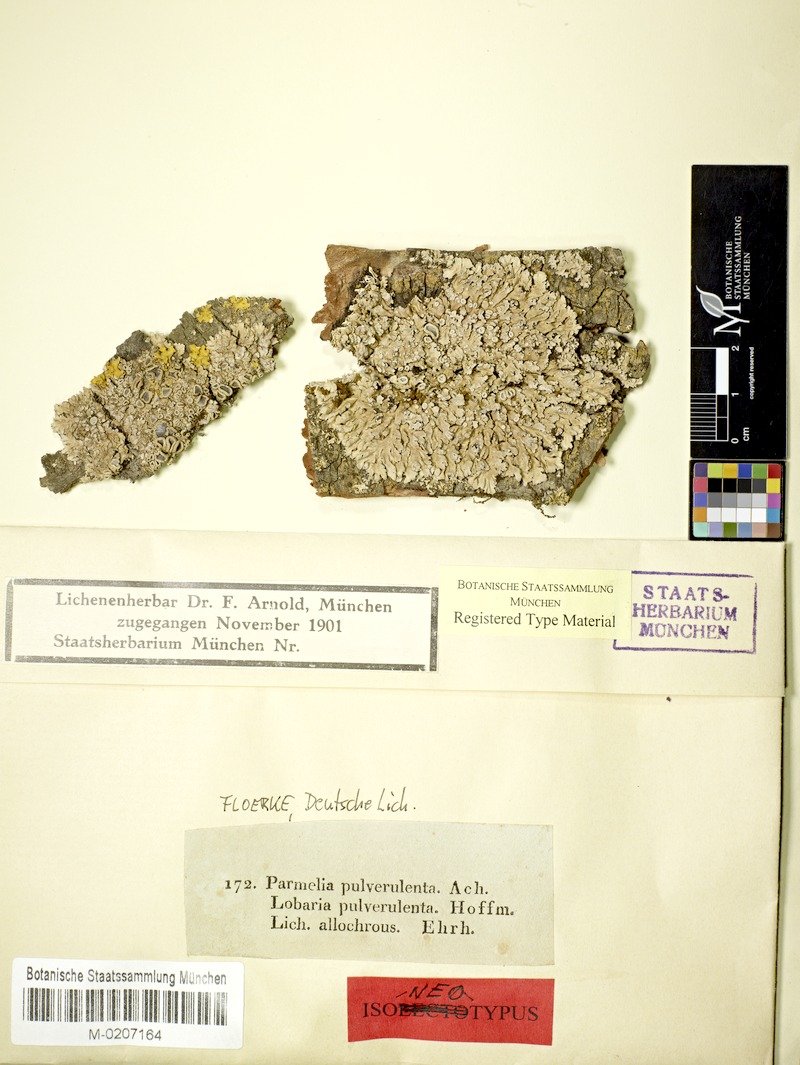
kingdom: Fungi
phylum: Ascomycota
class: Lecanoromycetes
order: Caliciales
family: Physciaceae
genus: Physconia
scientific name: Physconia distorta
